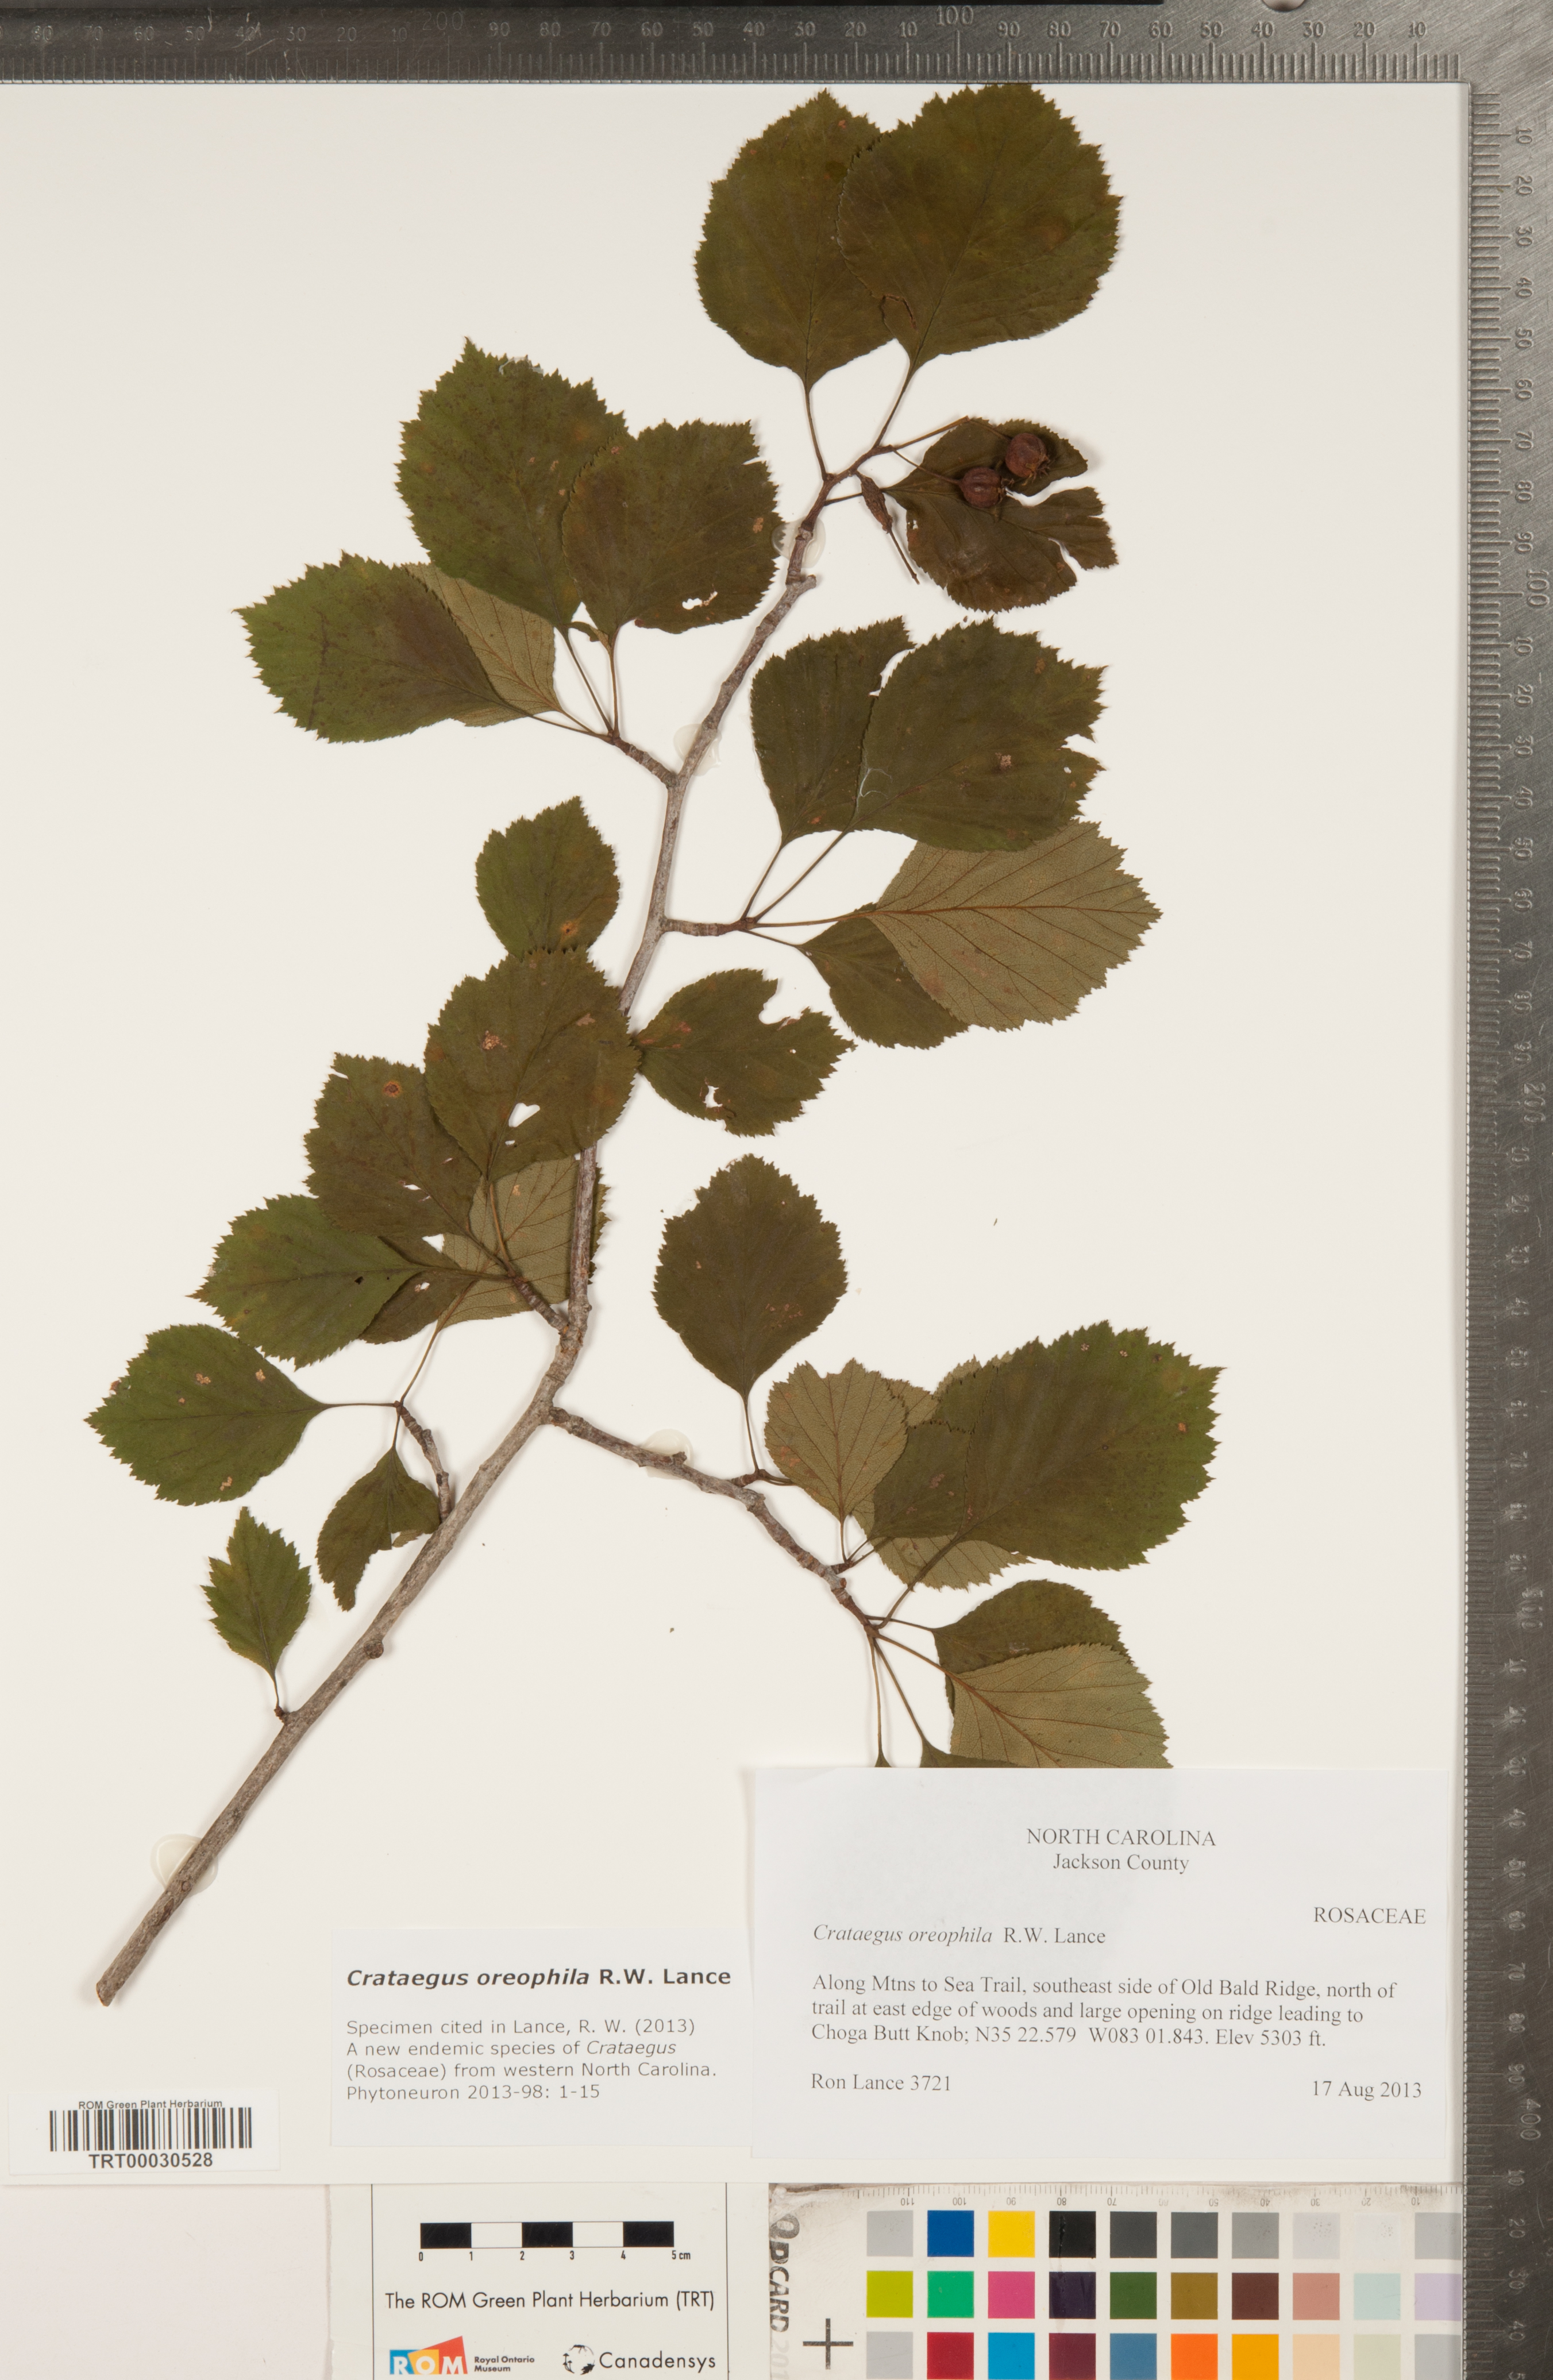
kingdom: Plantae
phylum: Tracheophyta
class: Magnoliopsida
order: Rosales
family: Rosaceae
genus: Crataegus
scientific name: Crataegus oreophila
